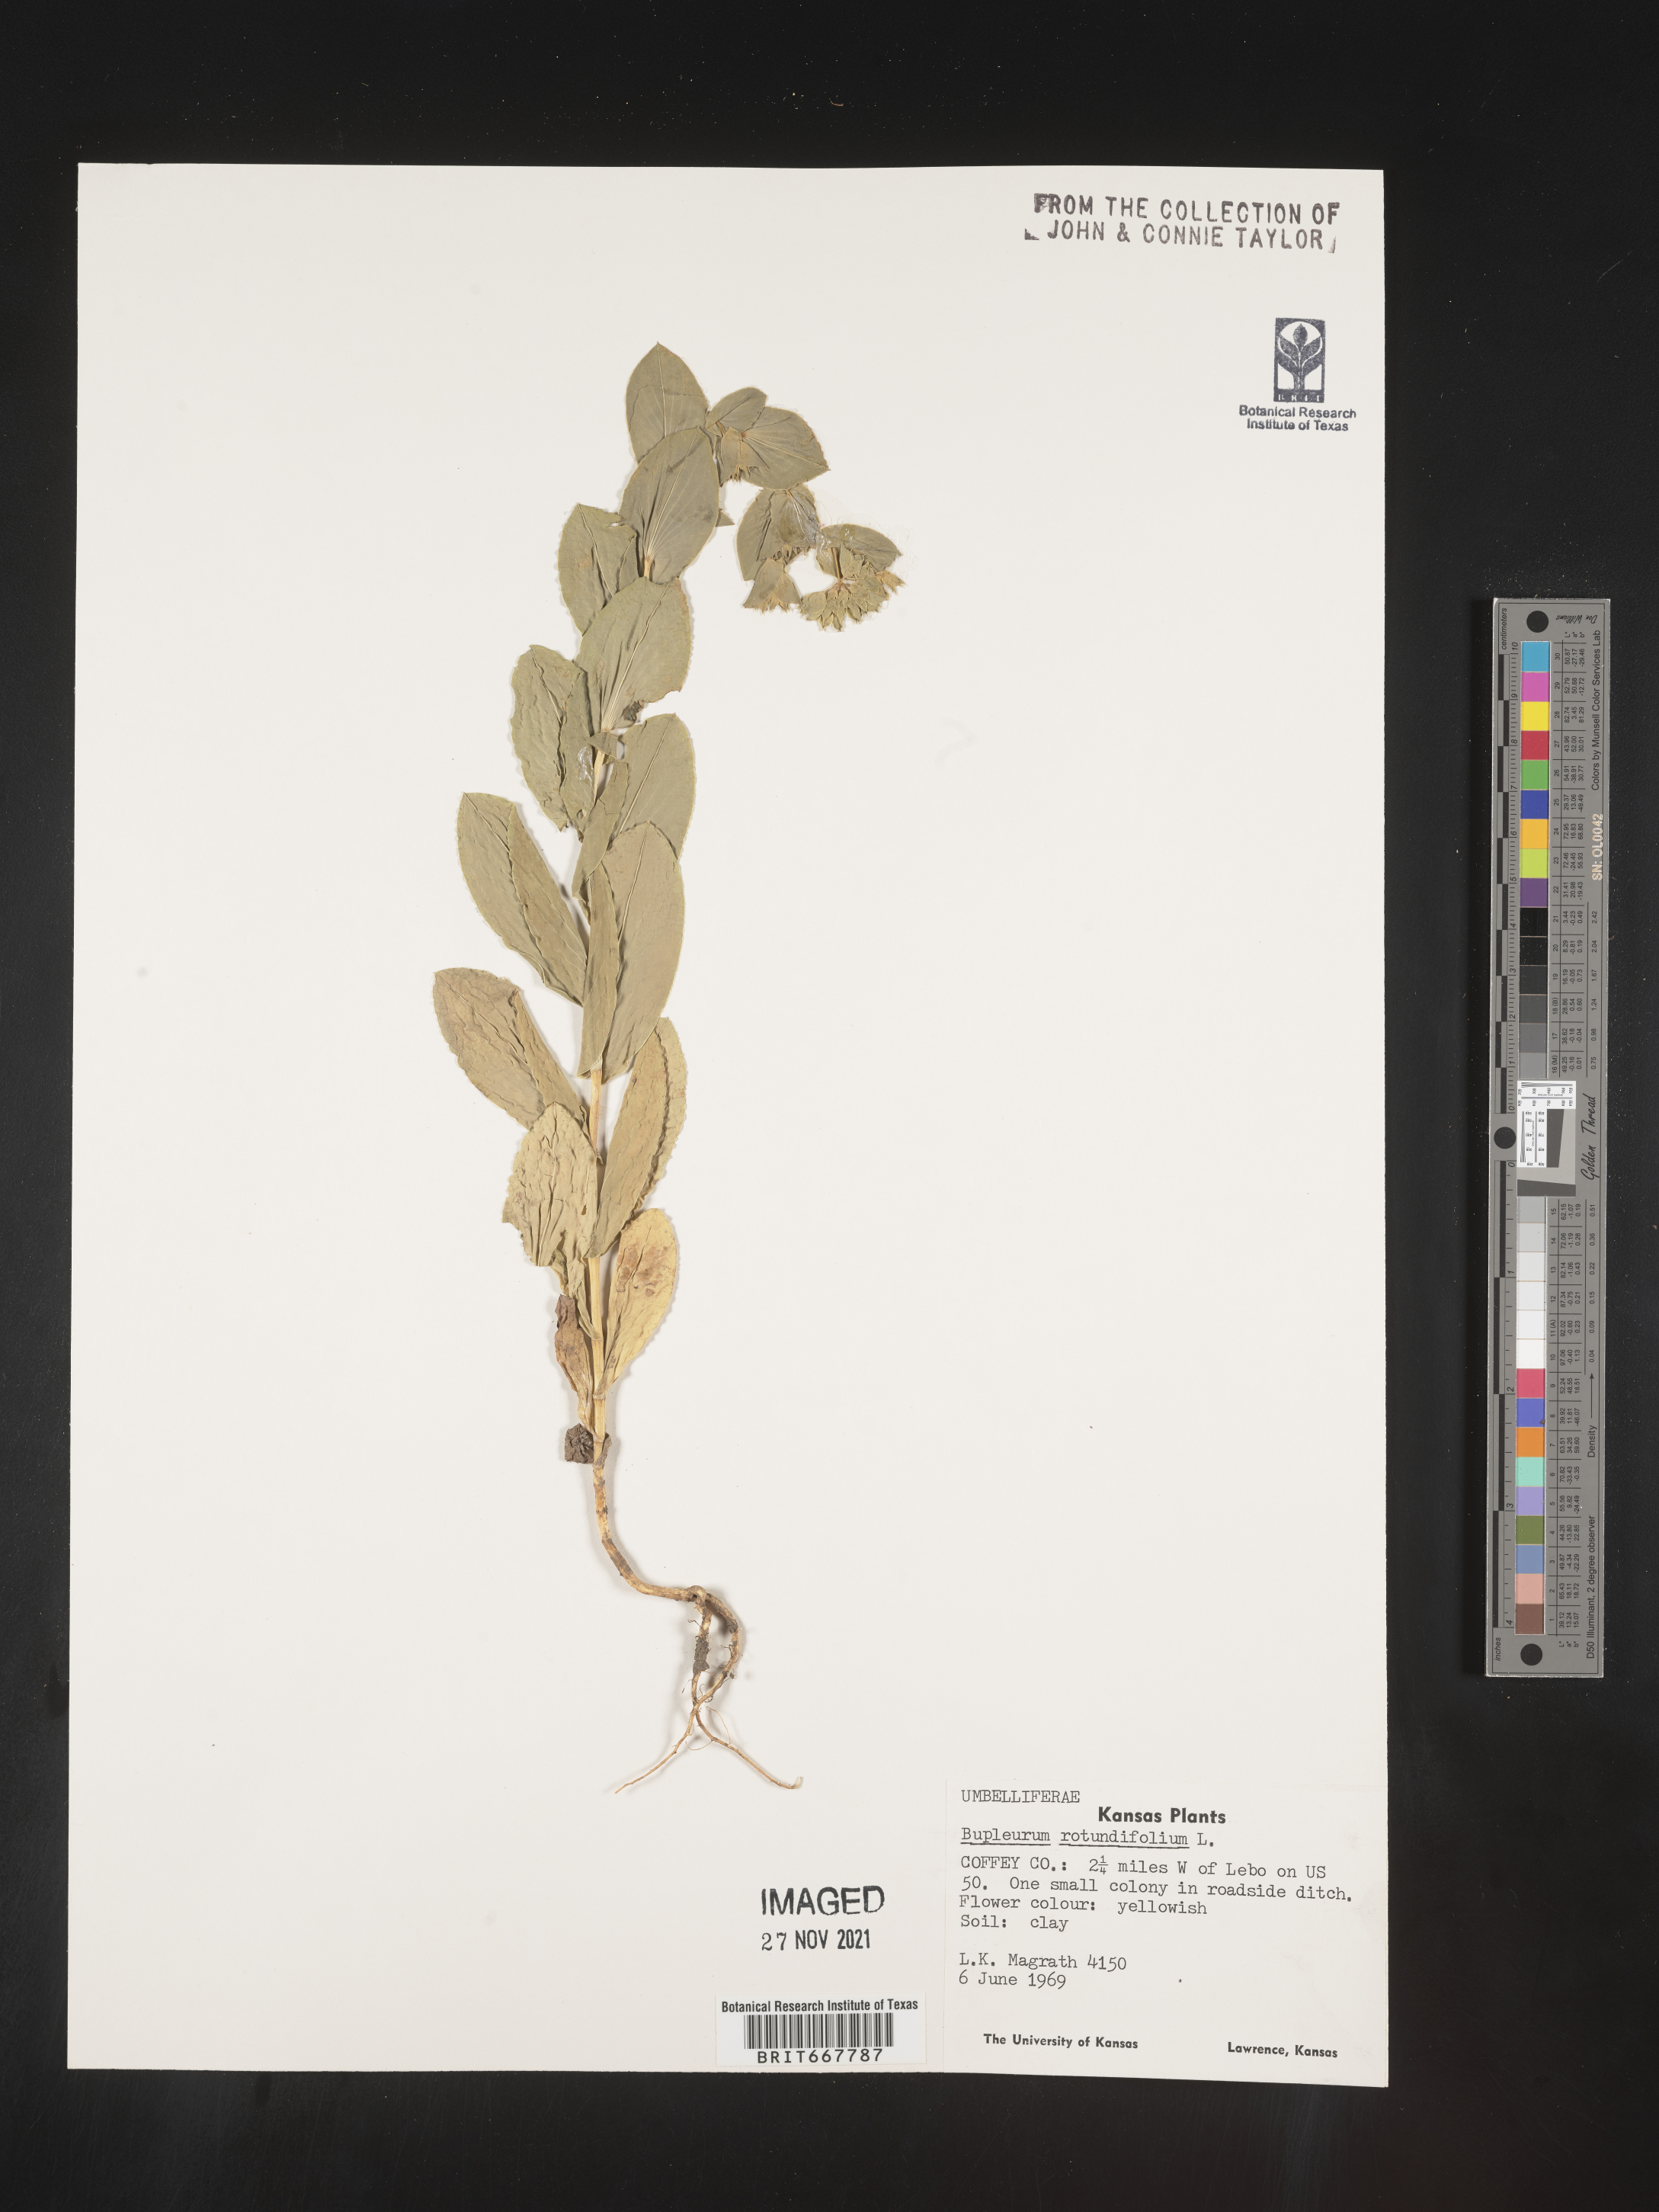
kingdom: Plantae
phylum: Tracheophyta
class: Magnoliopsida
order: Apiales
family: Apiaceae
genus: Bupleurum
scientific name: Bupleurum
